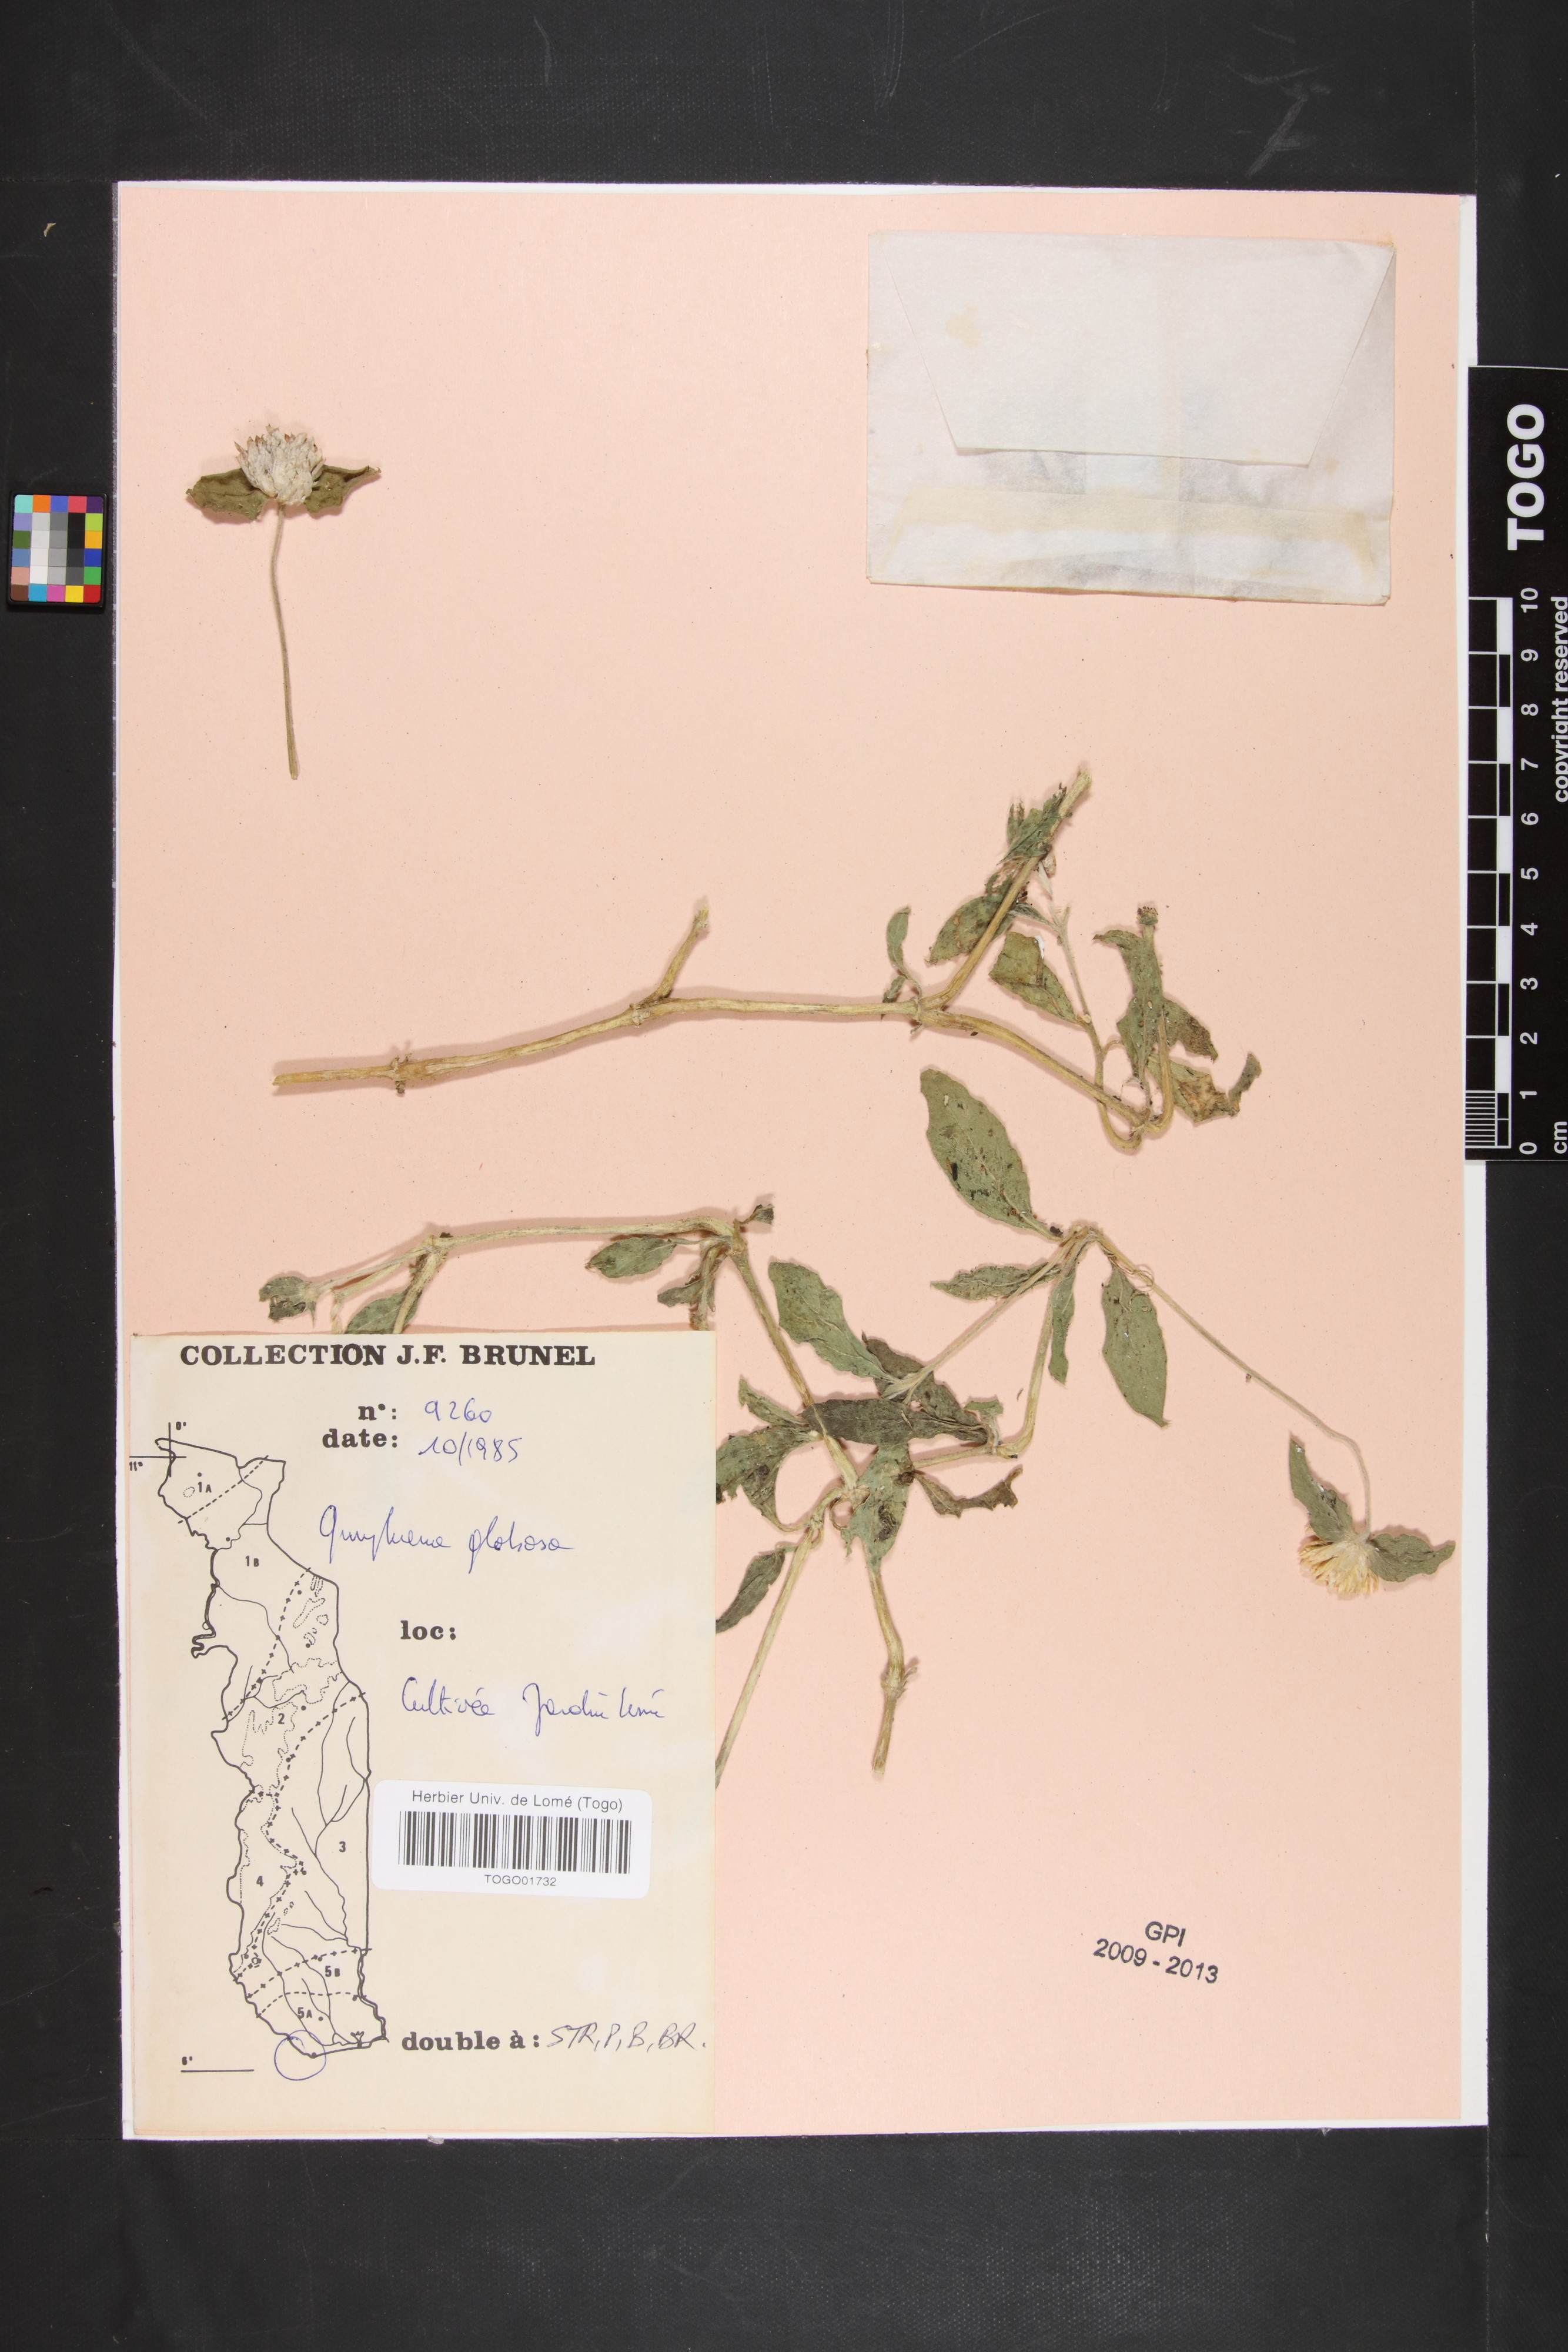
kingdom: Plantae
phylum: Tracheophyta
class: Magnoliopsida
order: Caryophyllales
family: Amaranthaceae
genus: Gomphrena
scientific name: Gomphrena globosa
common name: Common globe amaranth
